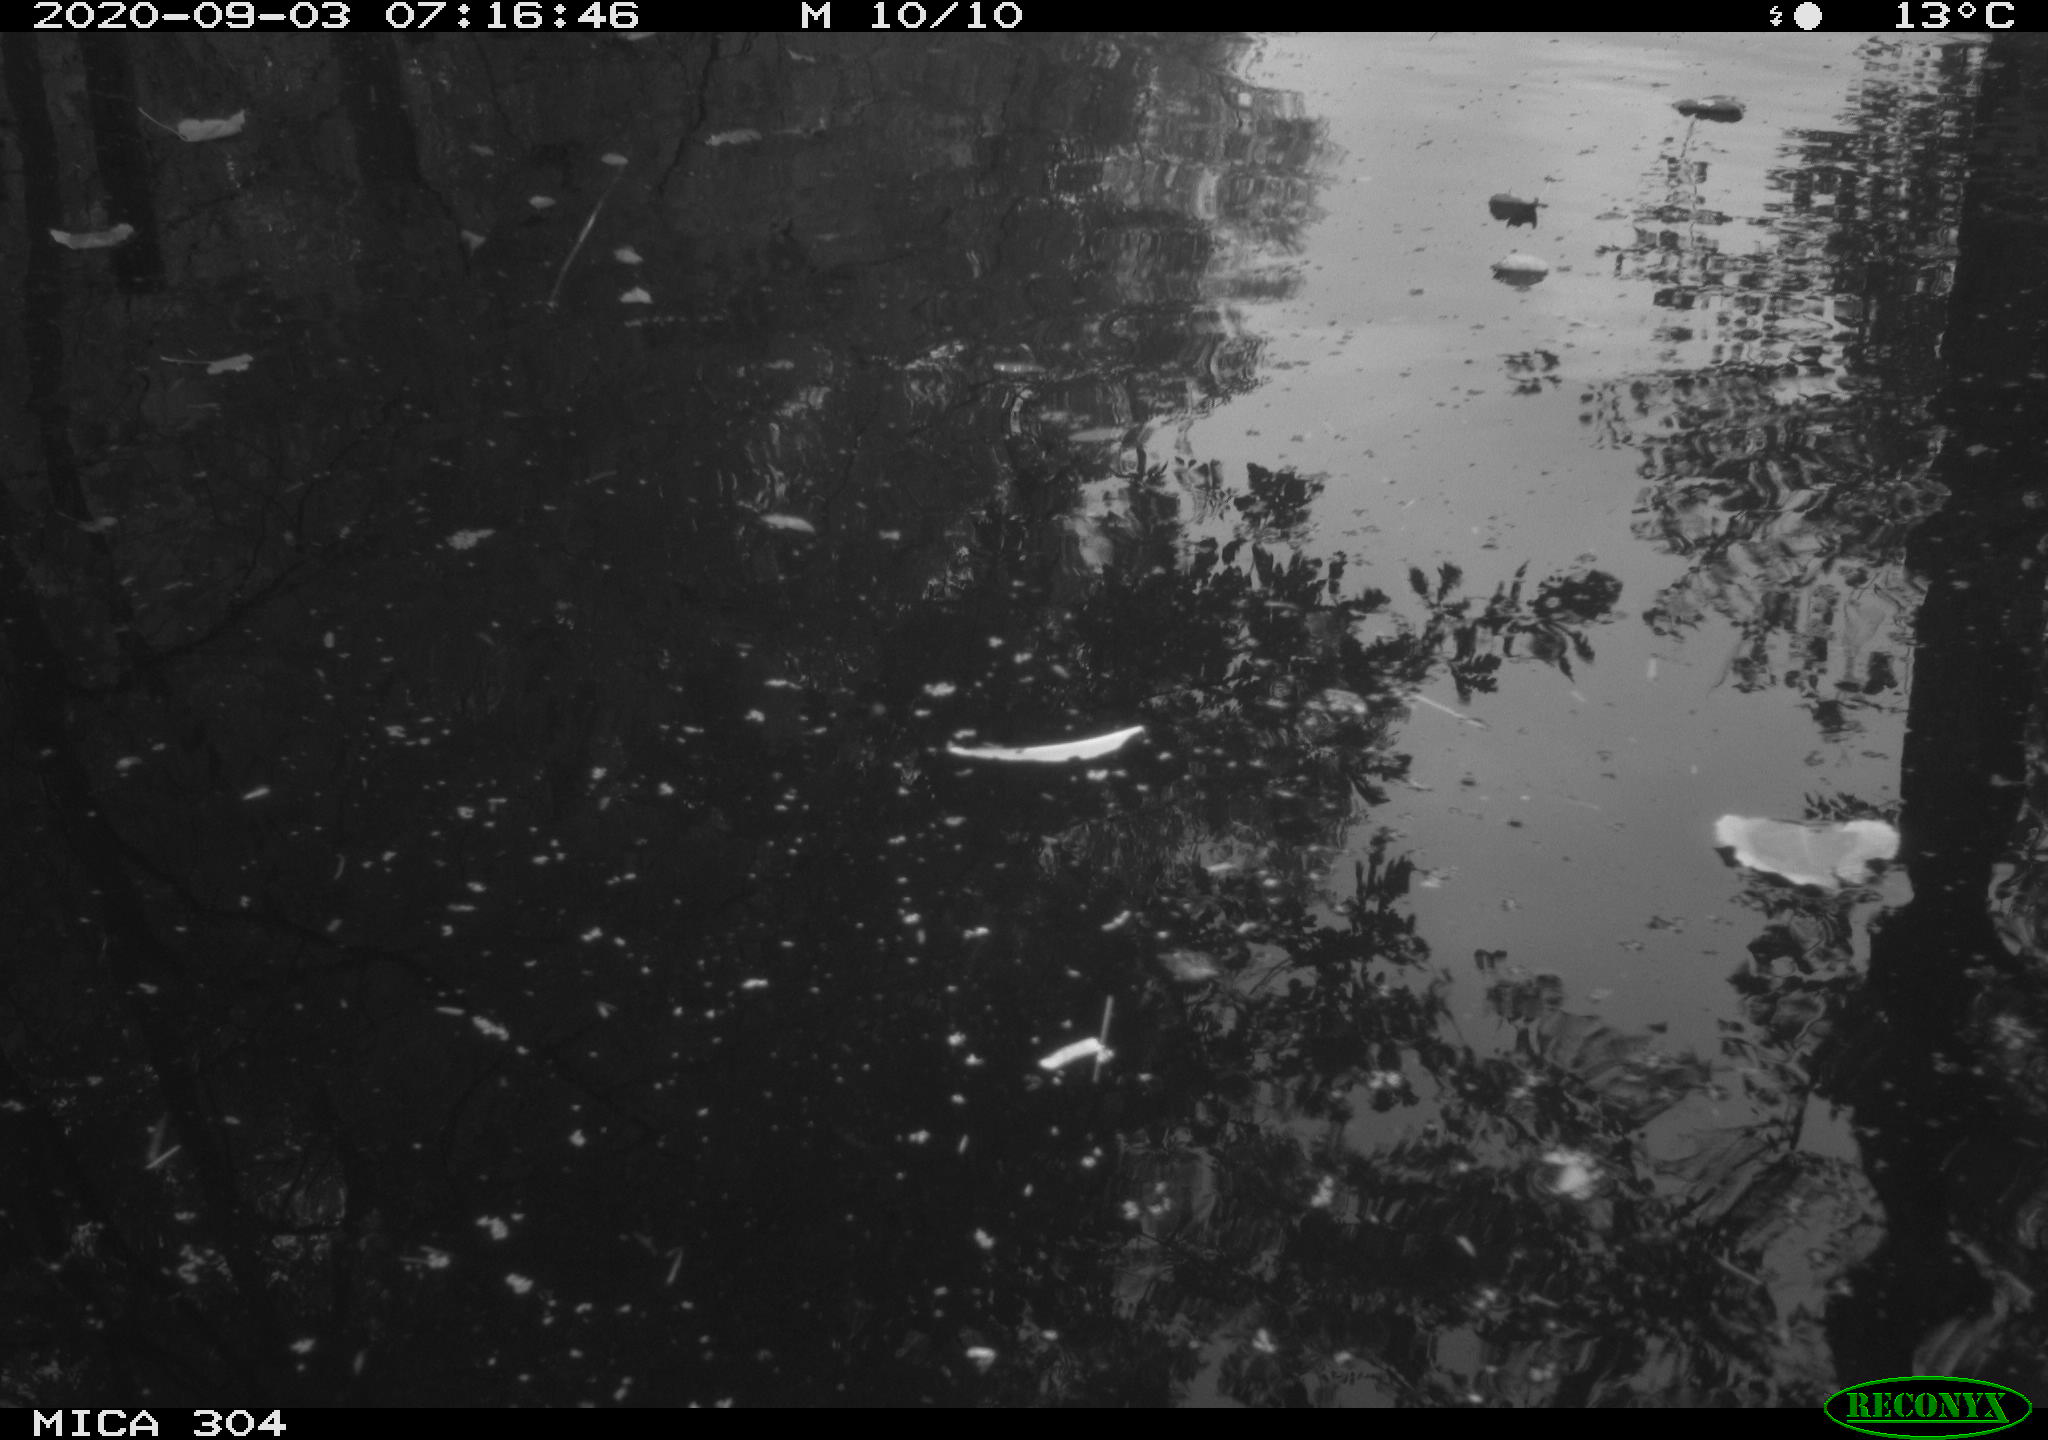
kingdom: Animalia
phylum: Chordata
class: Aves
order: Gruiformes
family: Rallidae
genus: Gallinula
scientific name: Gallinula chloropus
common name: Common moorhen
